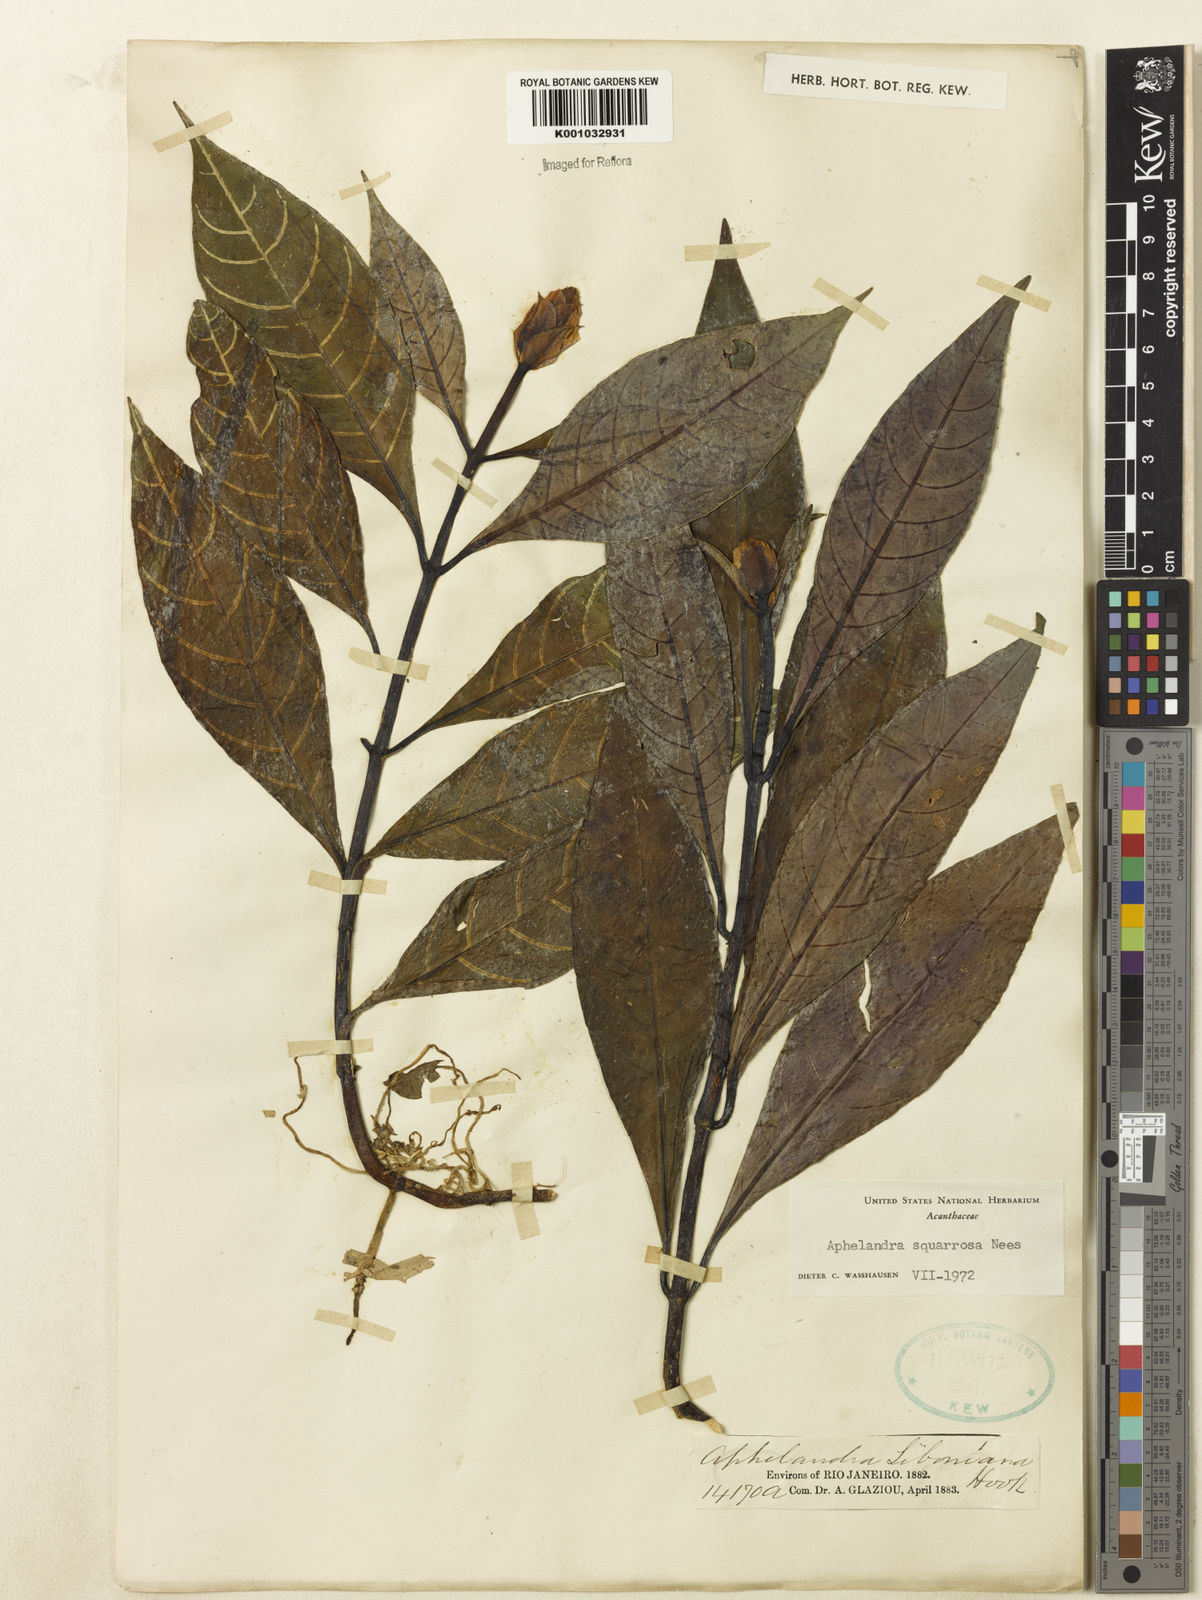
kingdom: Plantae
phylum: Tracheophyta
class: Magnoliopsida
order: Lamiales
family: Acanthaceae
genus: Aphelandra
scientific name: Aphelandra squarrosa
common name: Saffron spike
